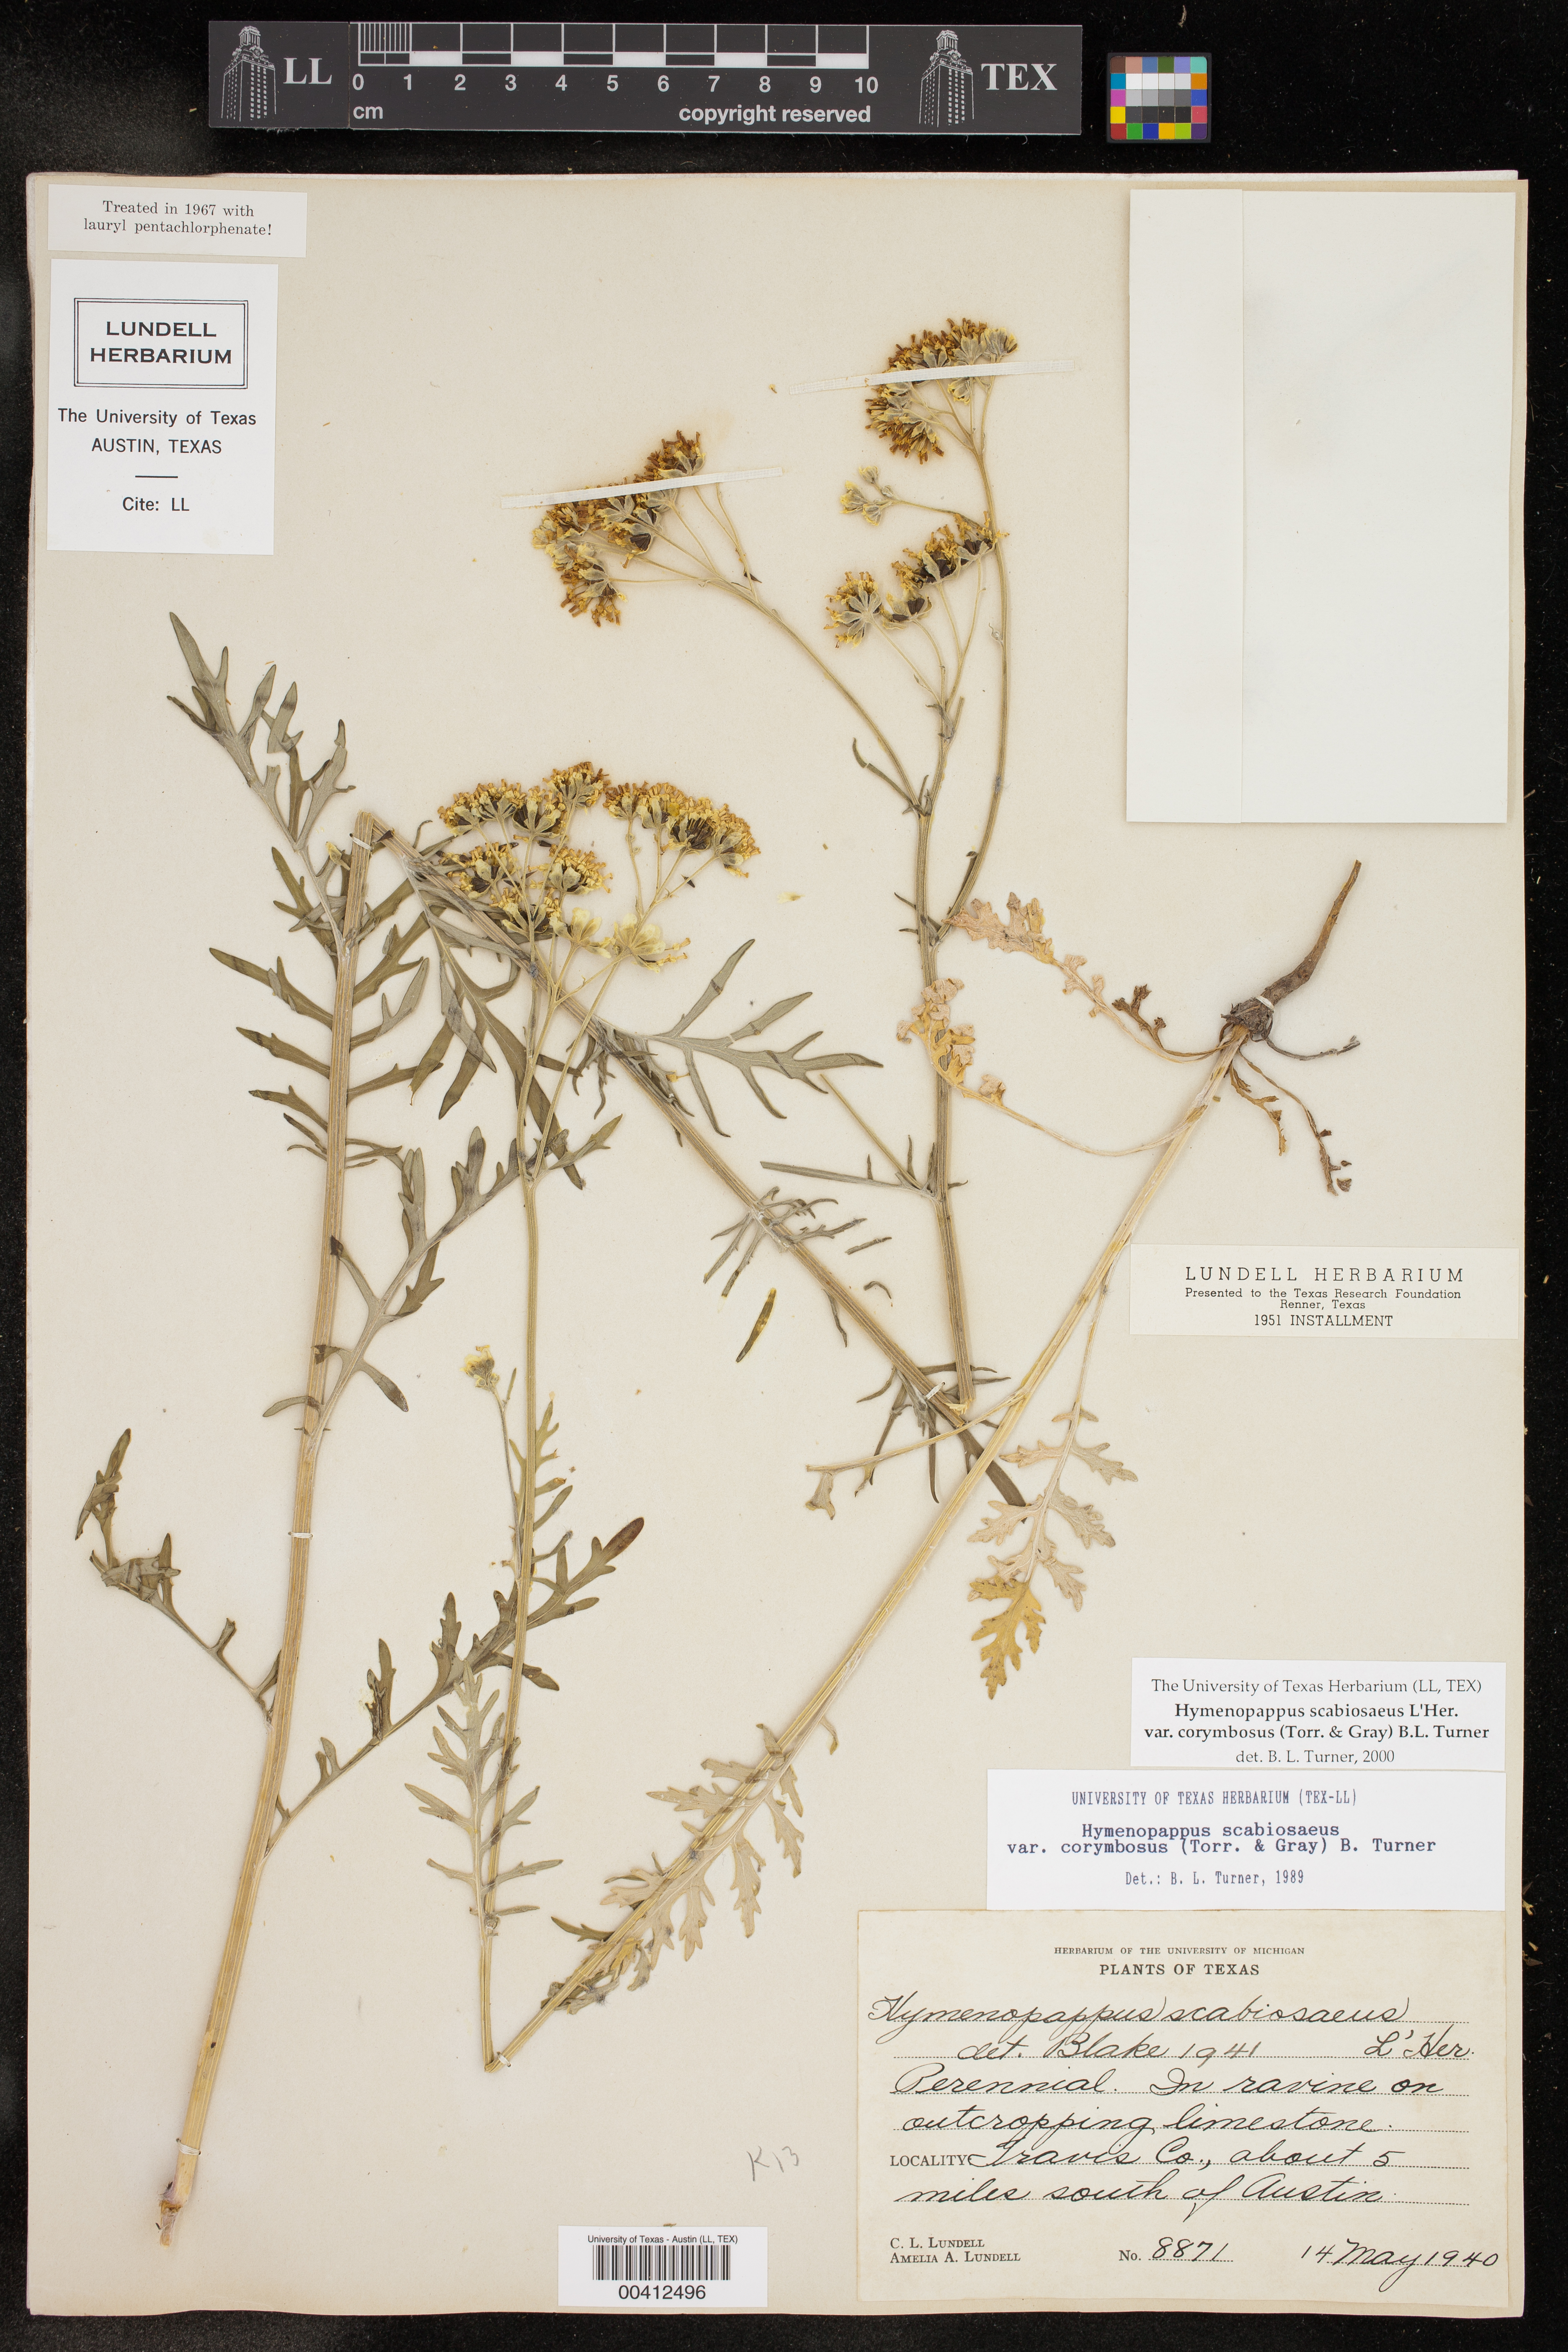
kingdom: Plantae
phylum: Tracheophyta
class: Magnoliopsida
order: Asterales
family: Asteraceae
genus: Hymenopappus
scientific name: Hymenopappus scabiosaeus
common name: Carolina woollywhite
